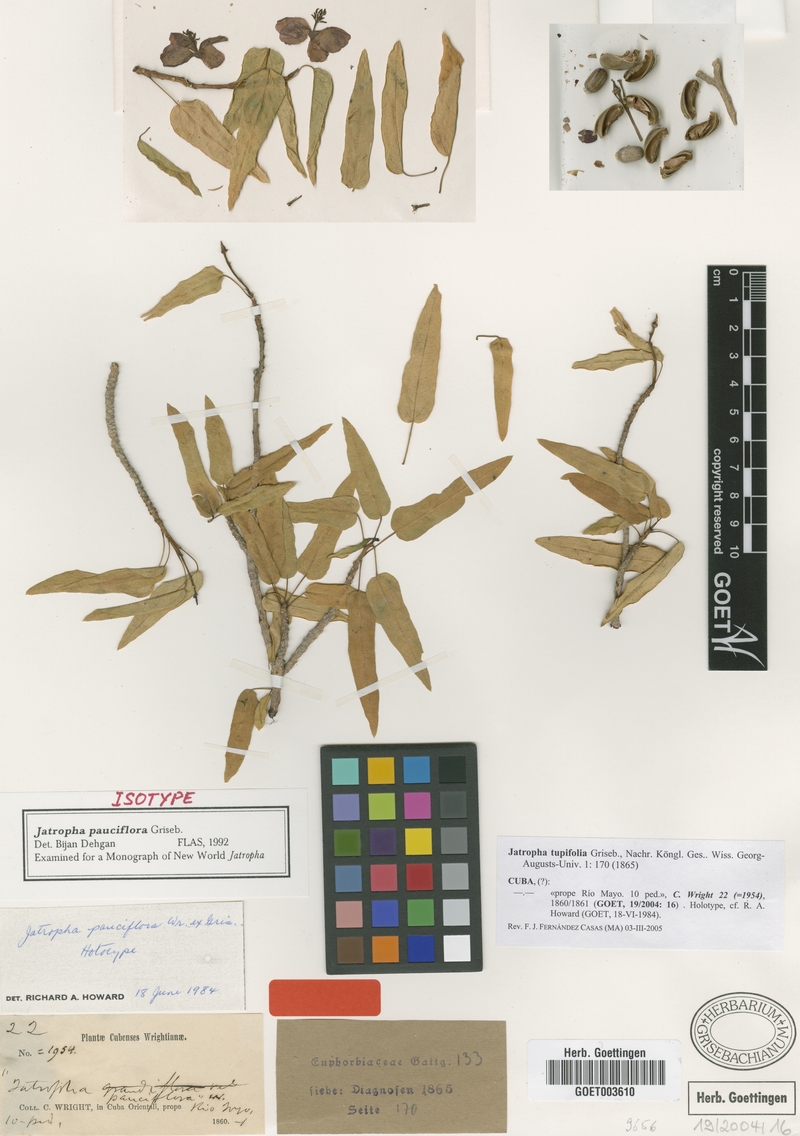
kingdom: Plantae
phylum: Tracheophyta
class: Magnoliopsida
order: Malpighiales
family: Euphorbiaceae
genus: Jatropha
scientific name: Jatropha pauciflora
